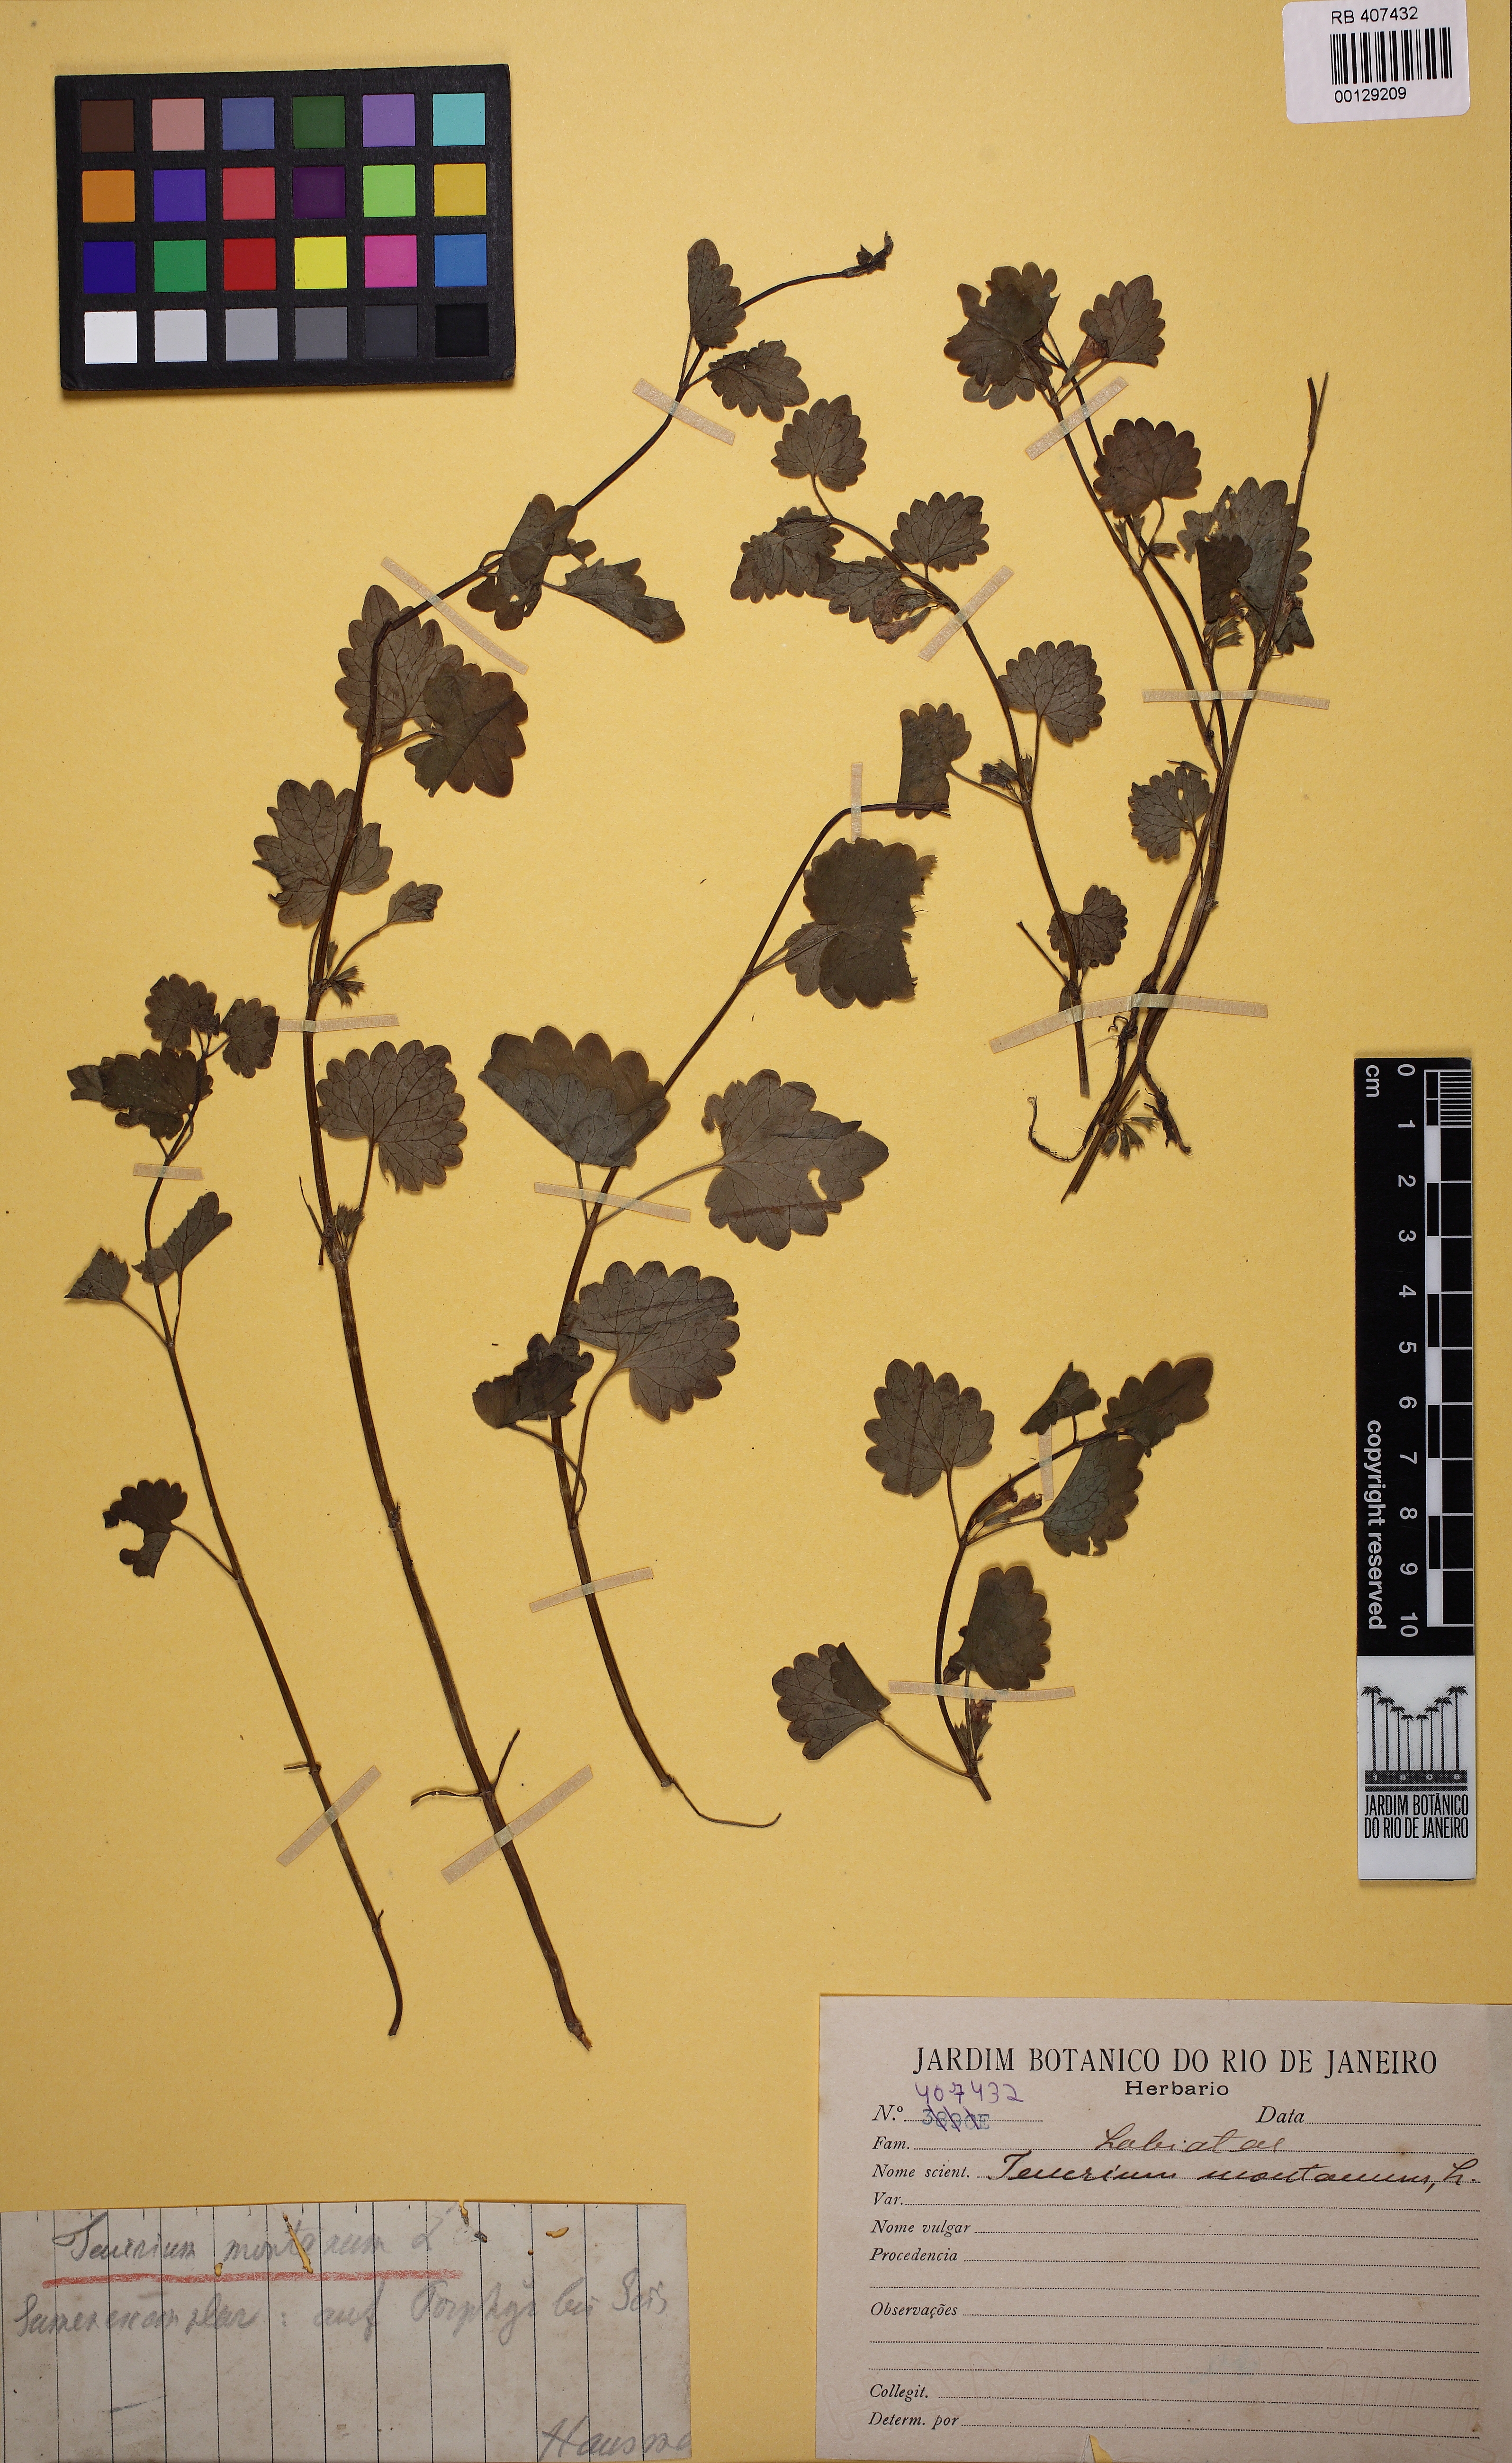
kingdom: Plantae
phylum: Tracheophyta
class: Magnoliopsida
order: Lamiales
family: Lamiaceae
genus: Teucrium
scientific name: Teucrium montanum
